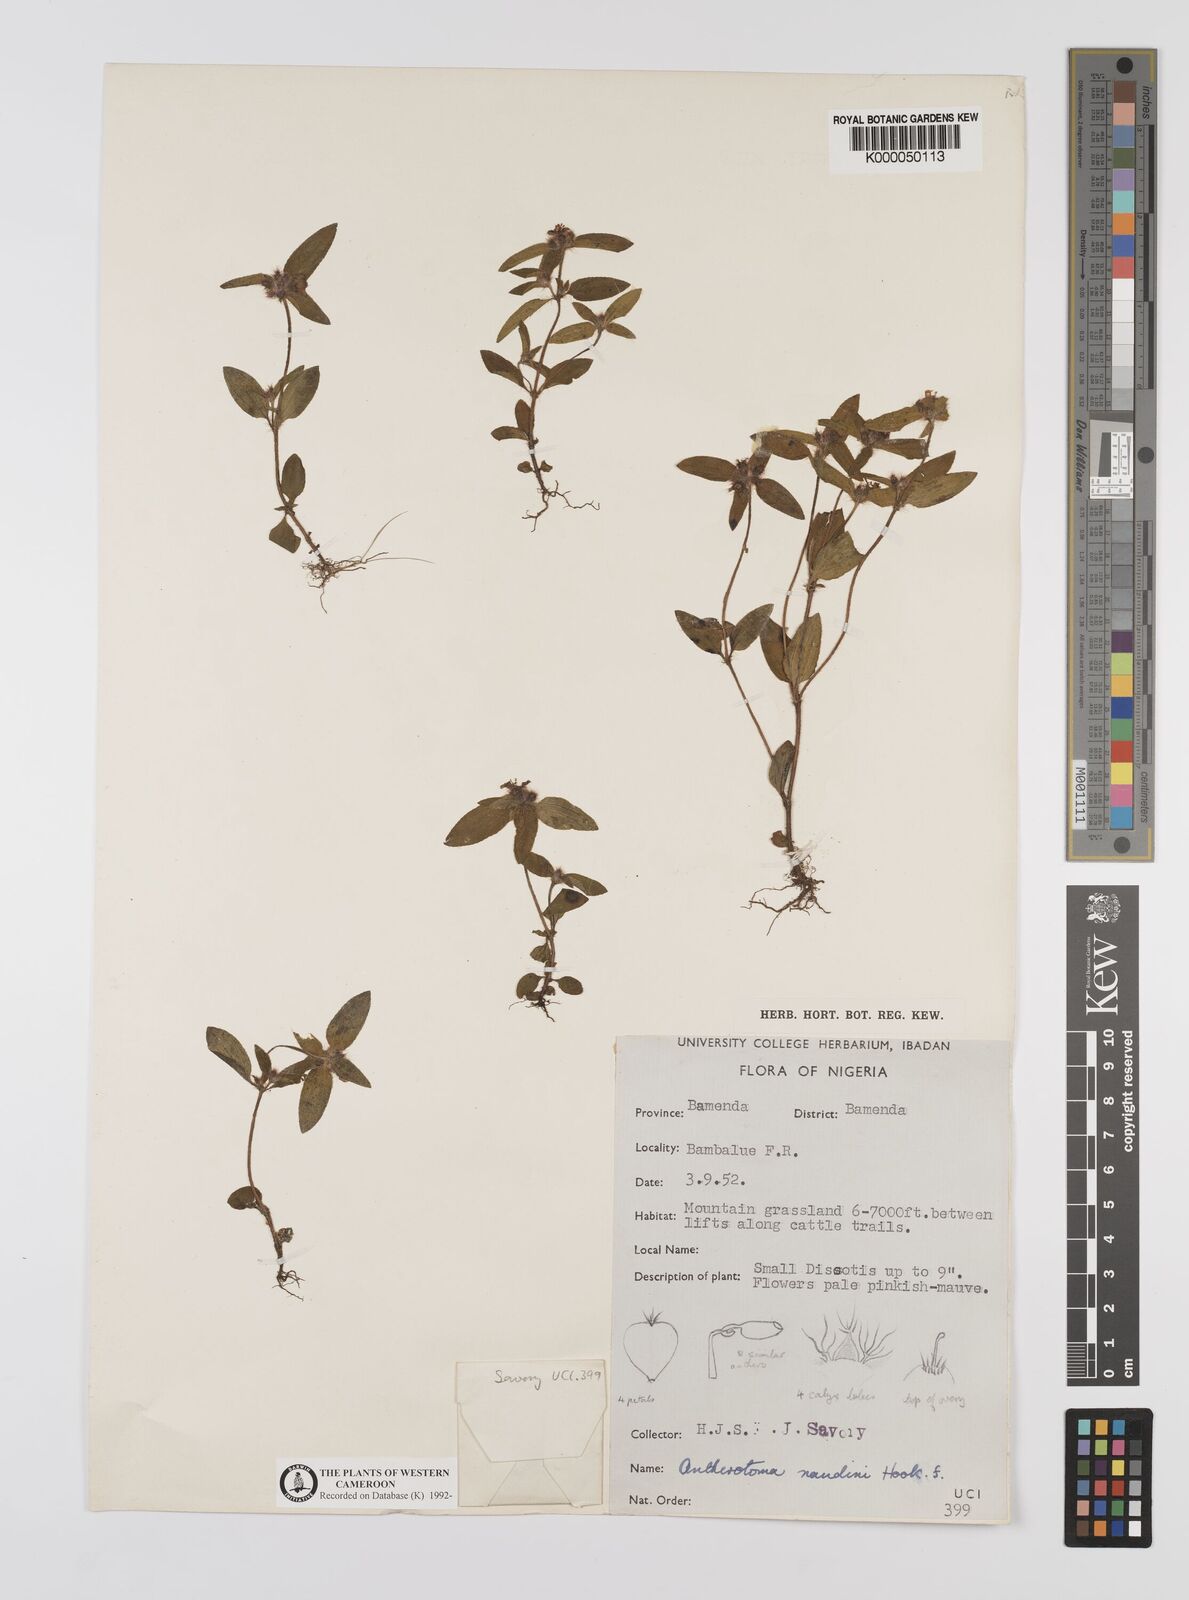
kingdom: Plantae
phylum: Tracheophyta
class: Magnoliopsida
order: Myrtales
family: Melastomataceae
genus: Antherotoma
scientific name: Antherotoma naudinii
